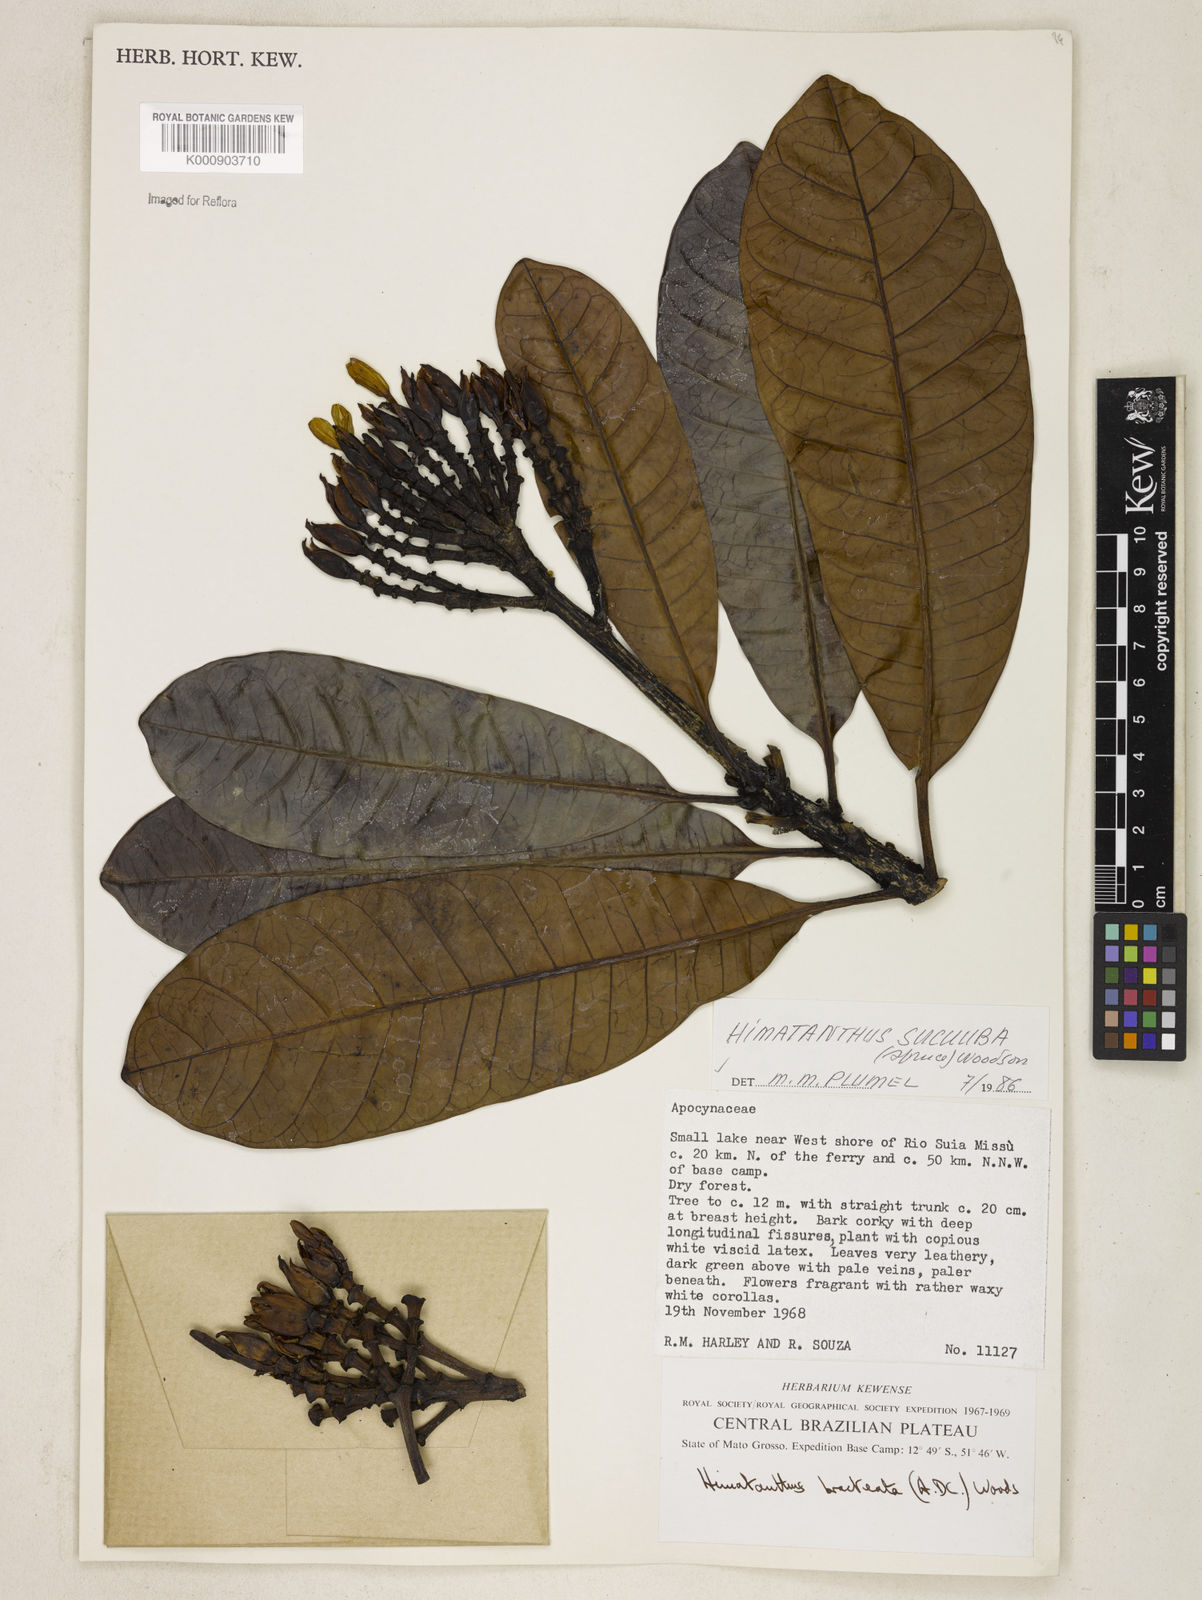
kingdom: Plantae
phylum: Tracheophyta
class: Magnoliopsida
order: Gentianales
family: Apocynaceae
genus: Himatanthus
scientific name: Himatanthus articulatus
